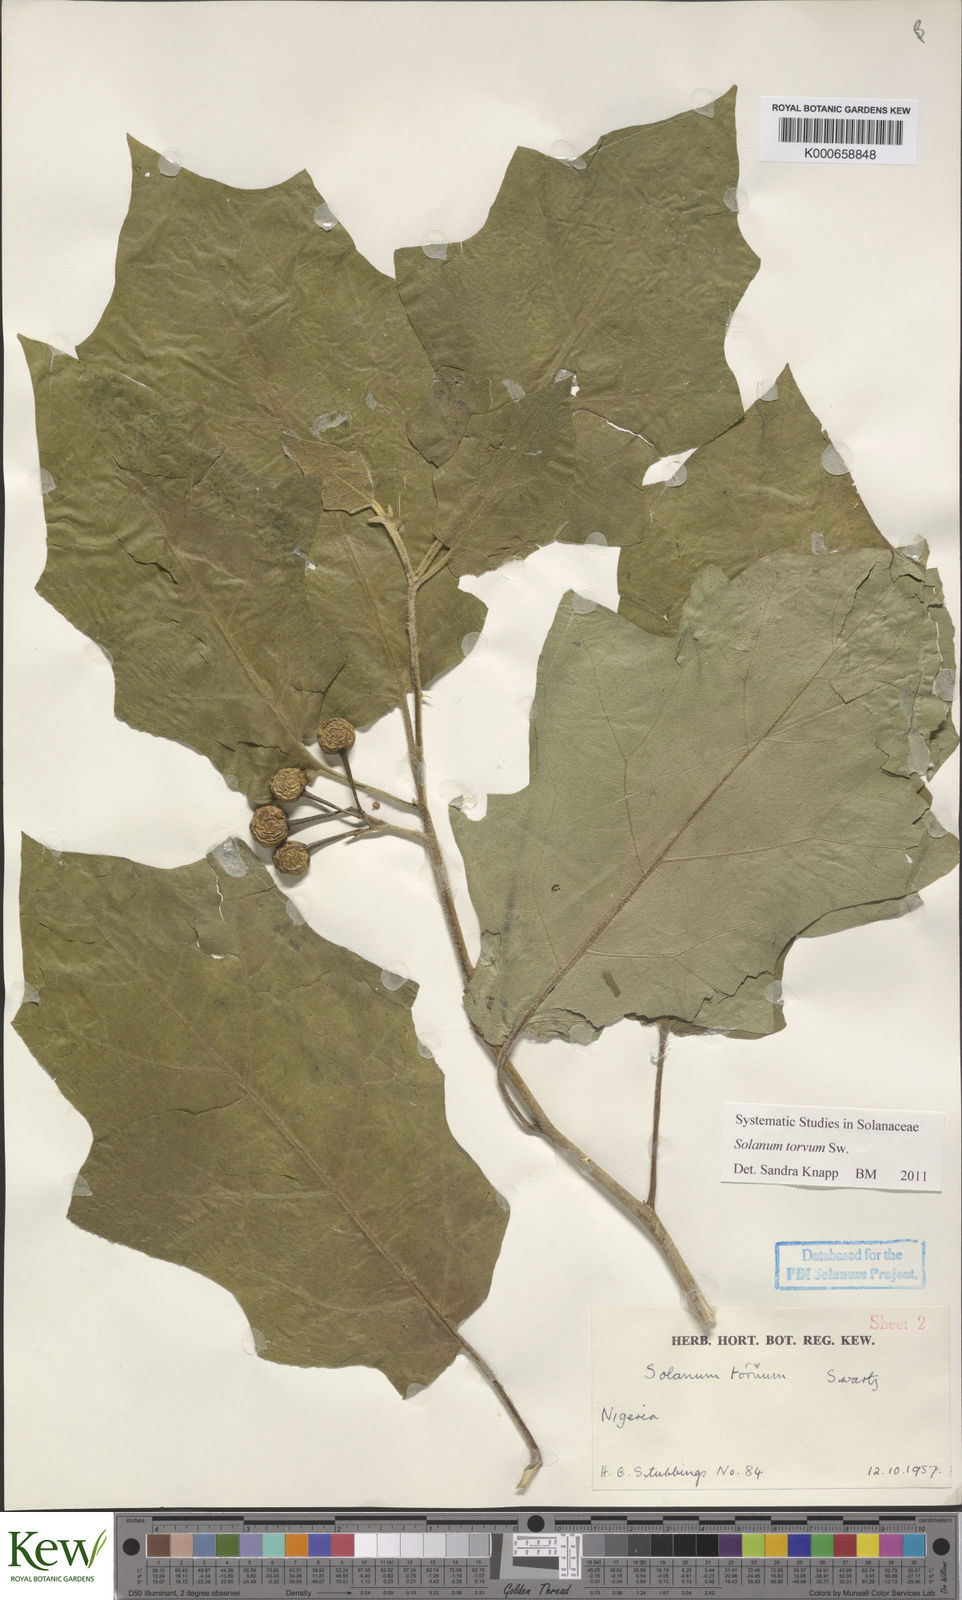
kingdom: Plantae
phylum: Tracheophyta
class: Magnoliopsida
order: Solanales
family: Solanaceae
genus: Solanum
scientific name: Solanum torvum
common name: Turkey berry
